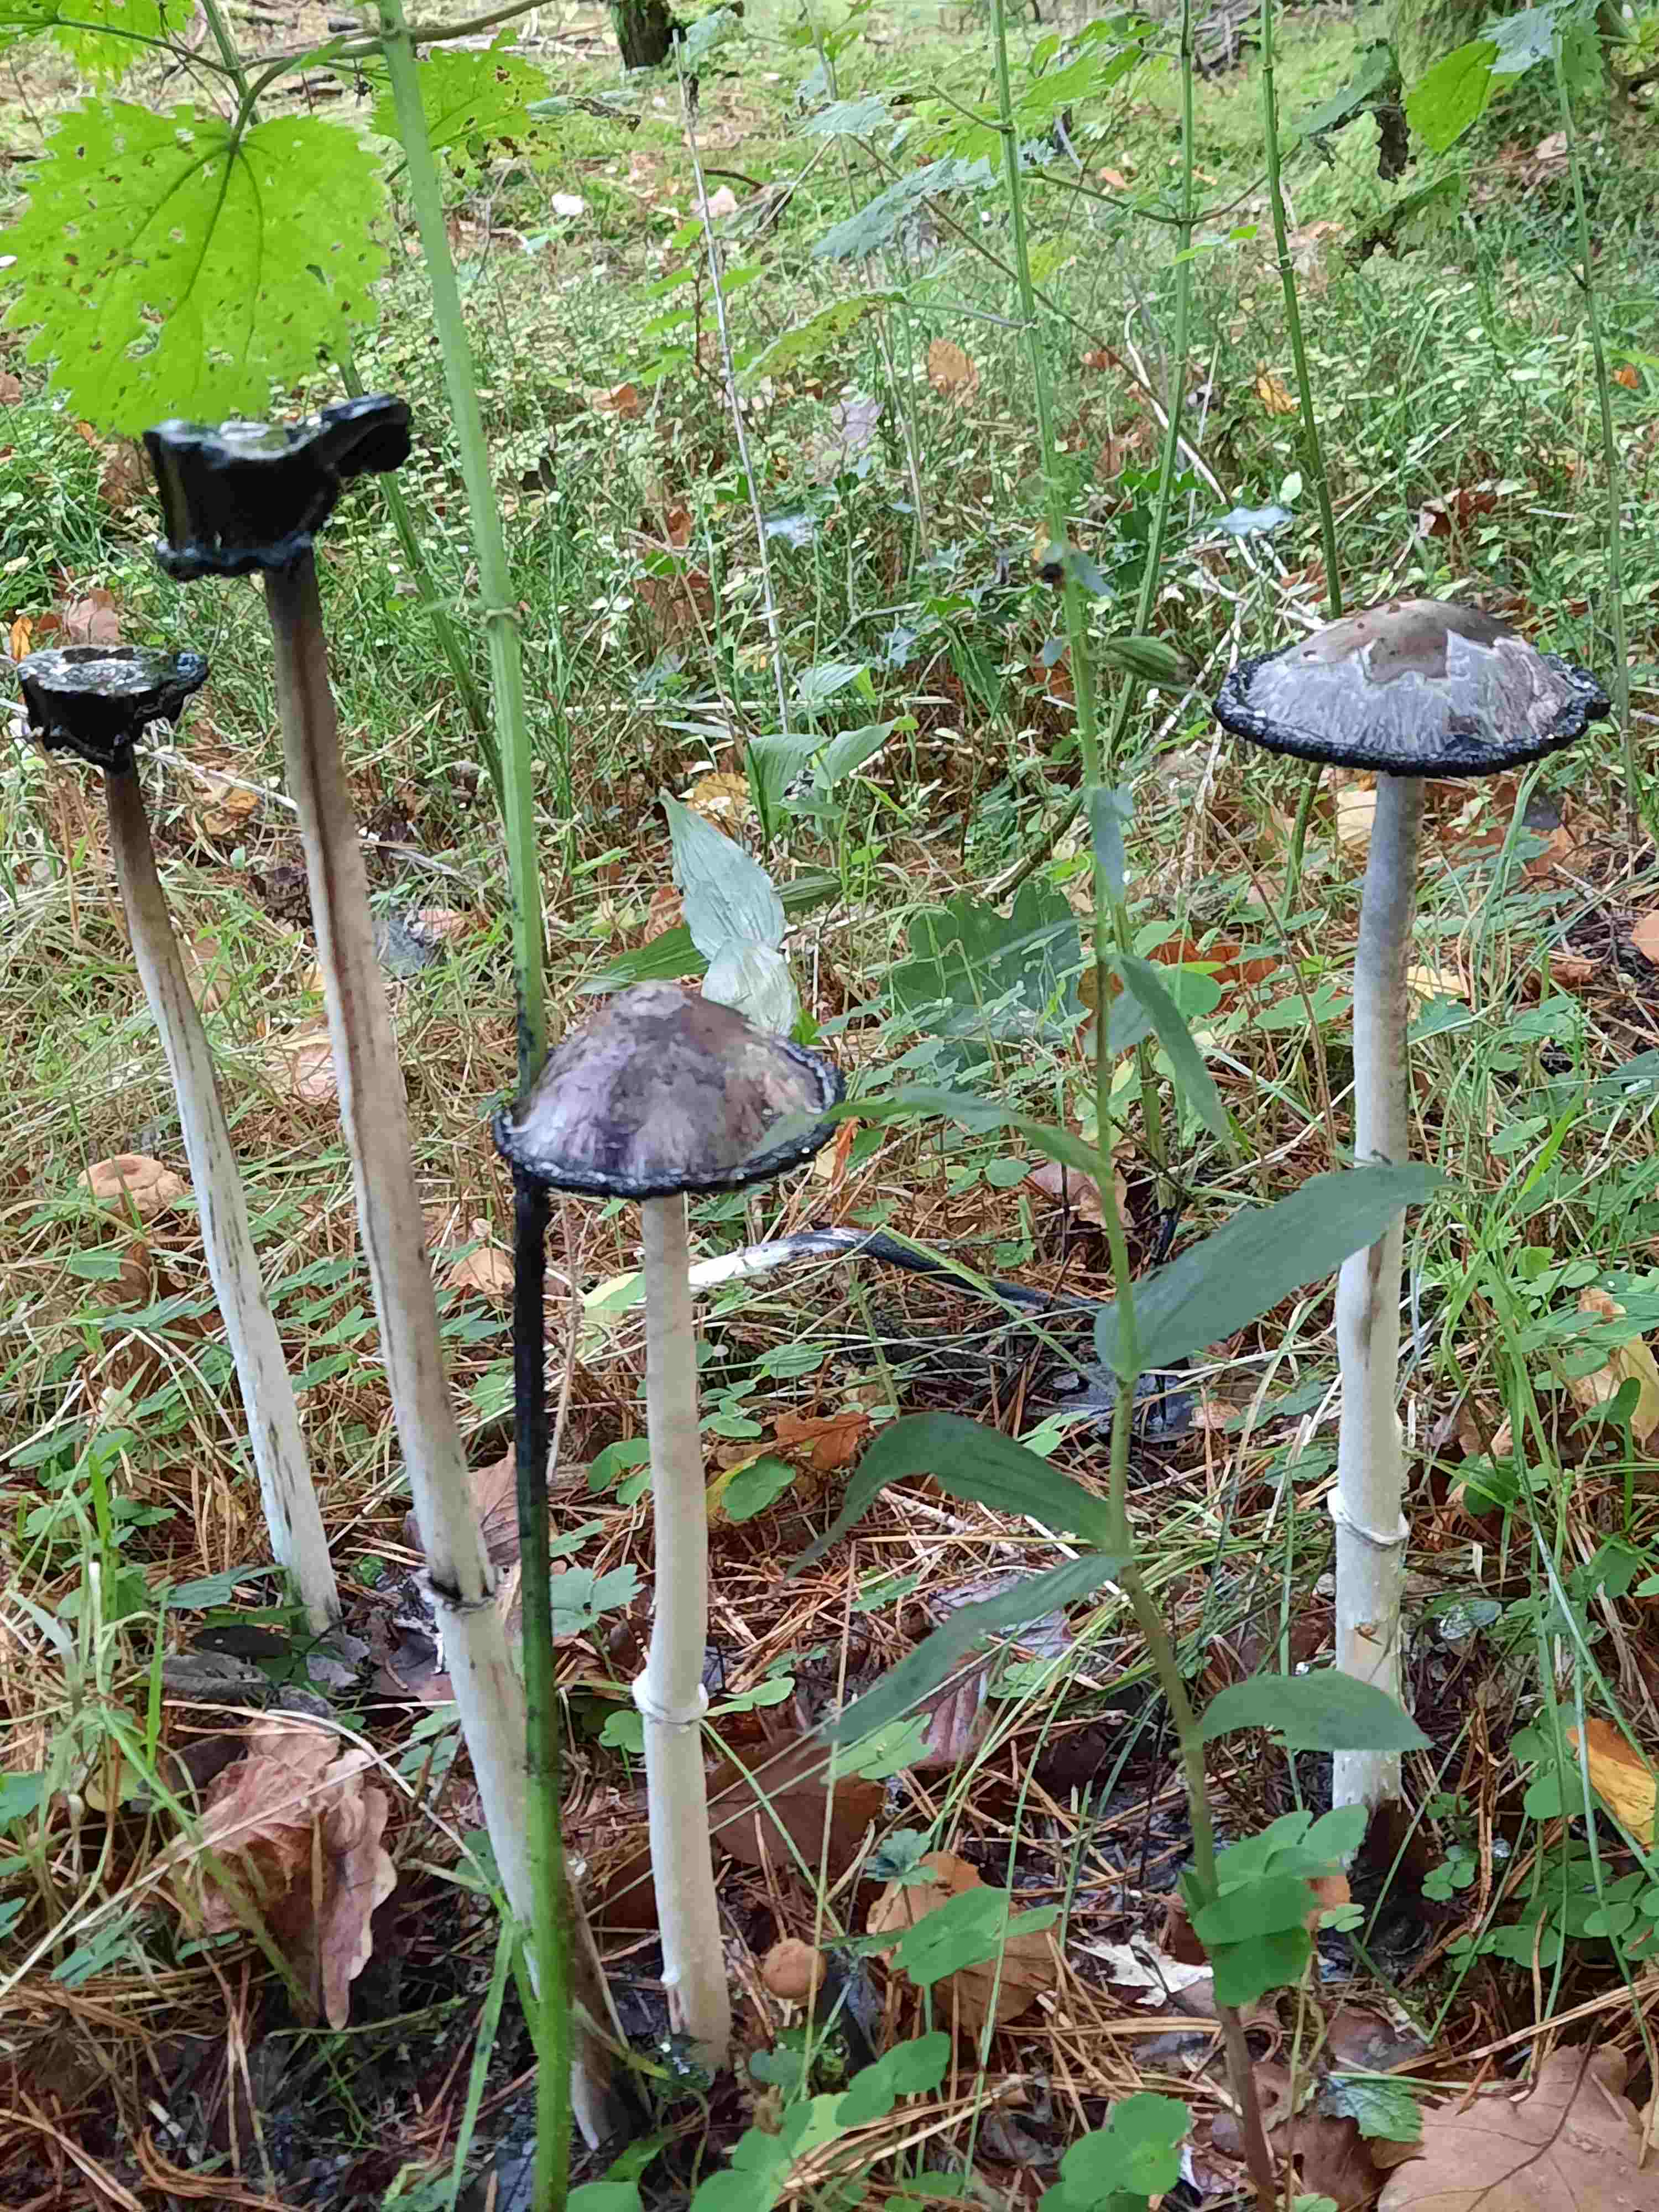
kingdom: Fungi
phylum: Basidiomycota
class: Agaricomycetes
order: Agaricales
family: Agaricaceae
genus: Coprinus
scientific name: Coprinus comatus
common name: stor parykhat
